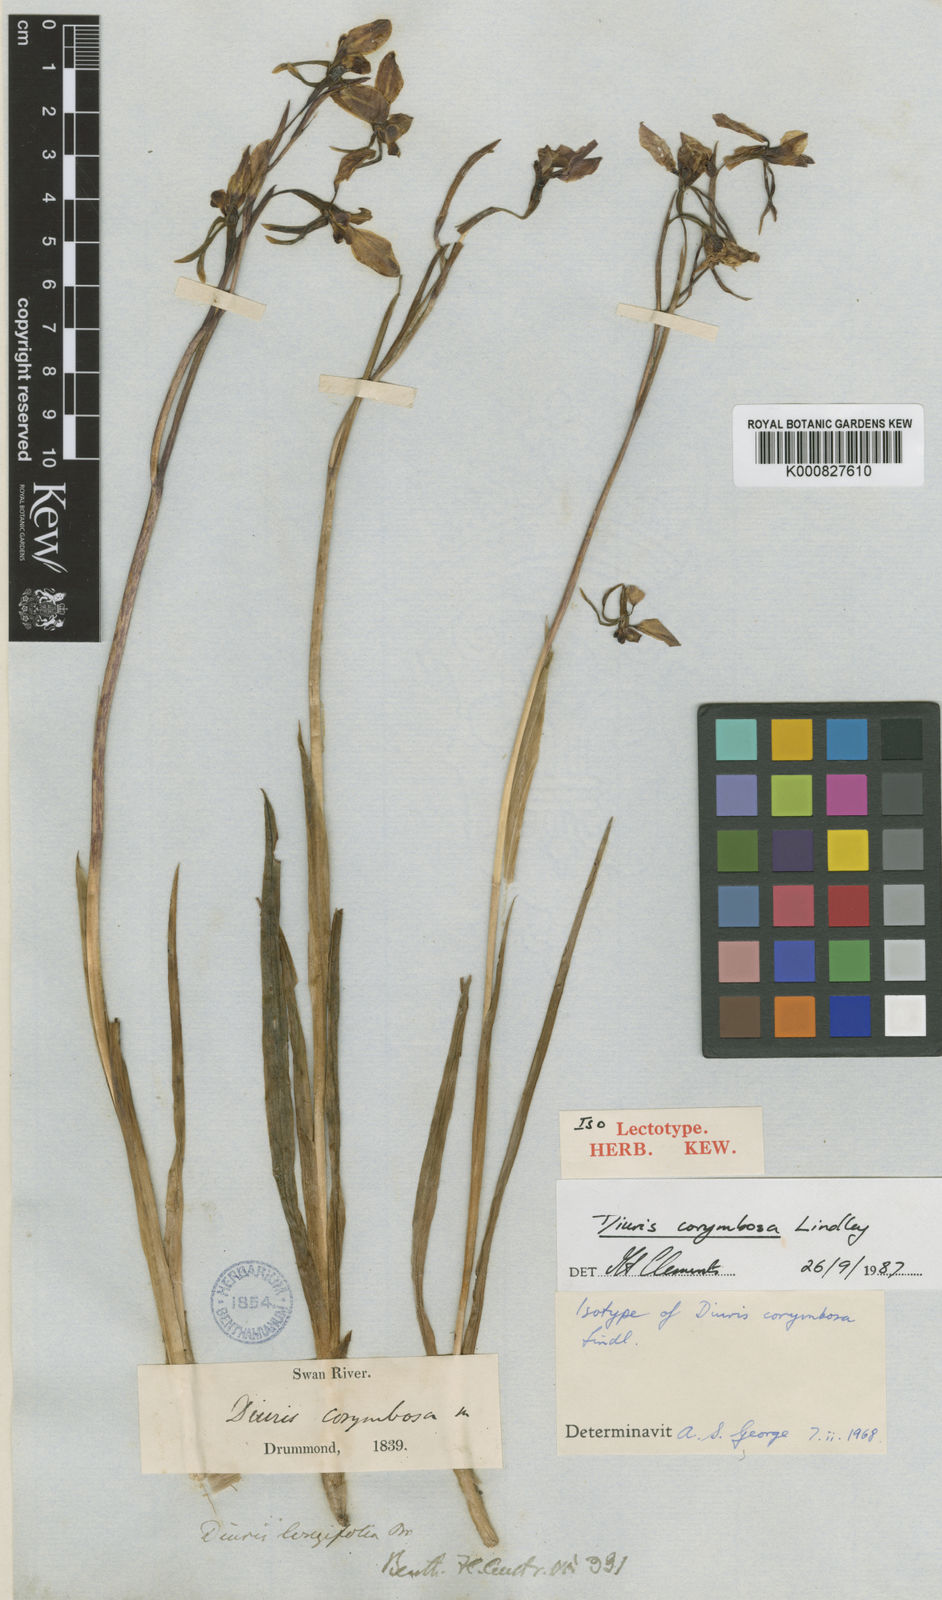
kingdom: Plantae
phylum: Tracheophyta
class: Liliopsida
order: Asparagales
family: Orchidaceae
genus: Diuris
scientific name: Diuris longifolia
